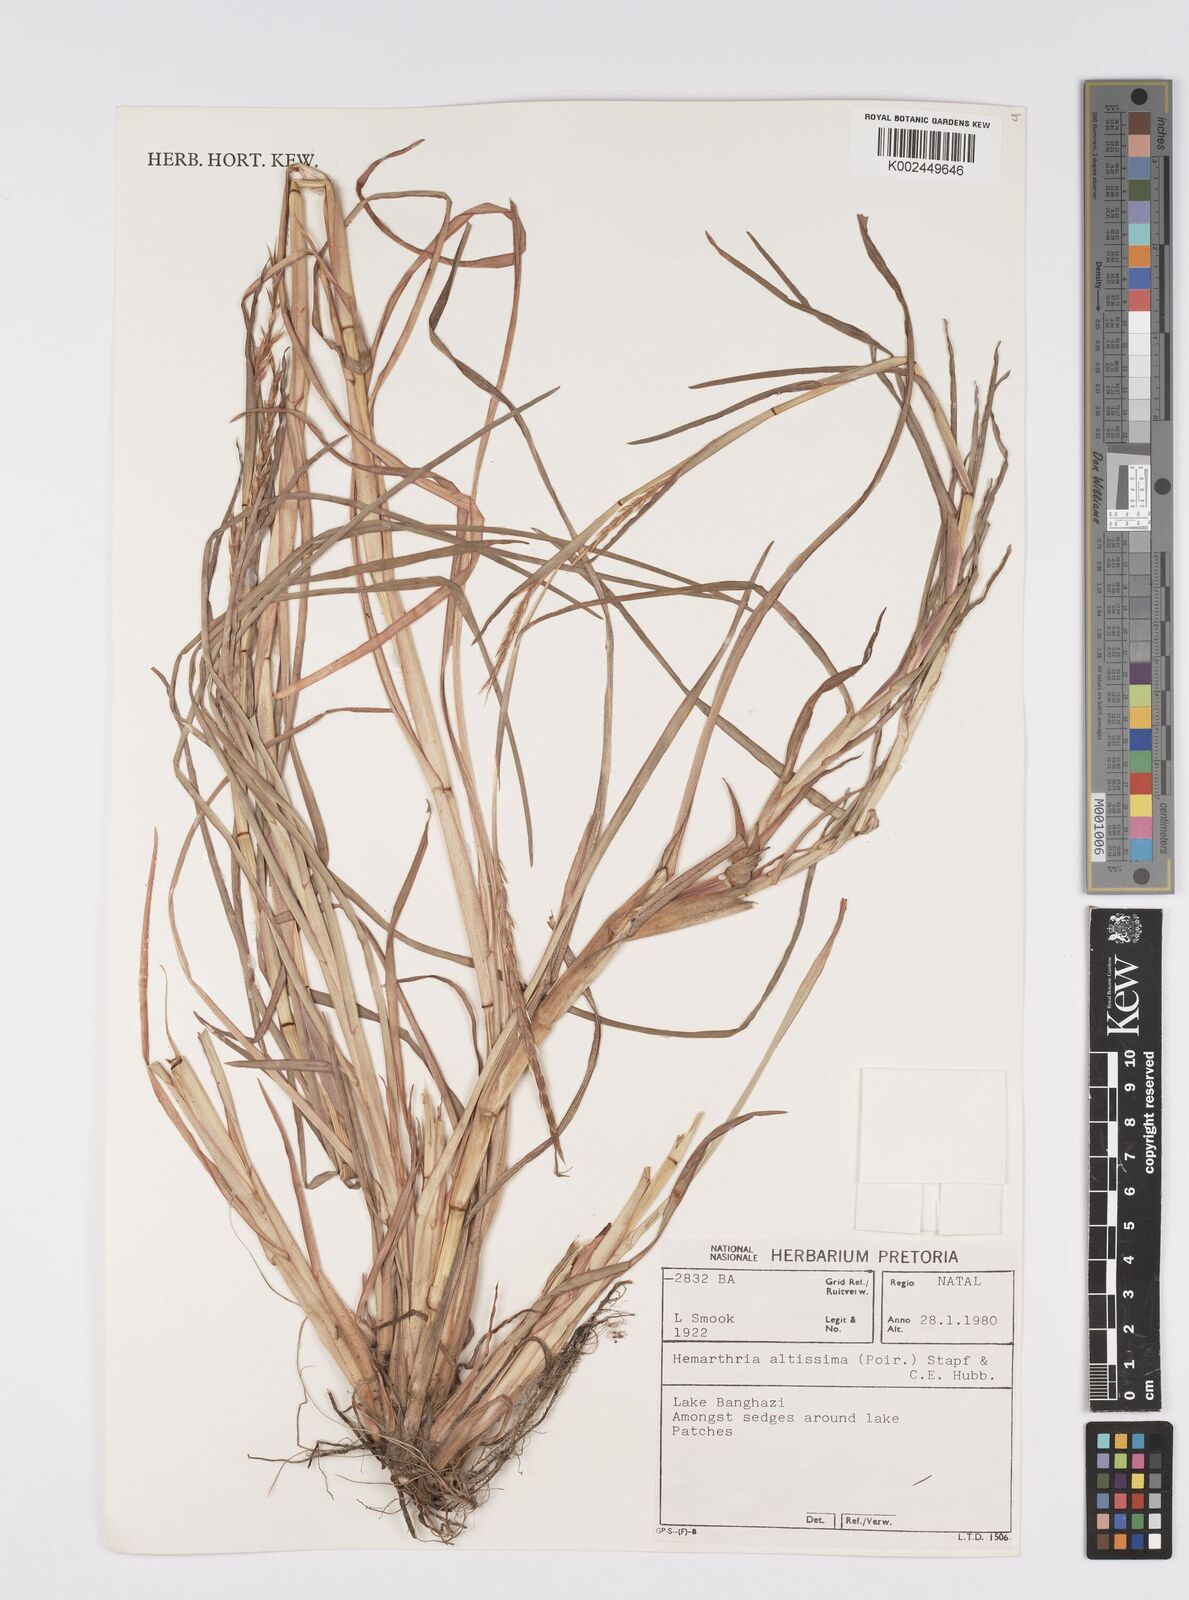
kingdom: Plantae
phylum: Tracheophyta
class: Liliopsida
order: Poales
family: Poaceae
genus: Hemarthria
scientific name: Hemarthria altissima
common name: African jointgrass
